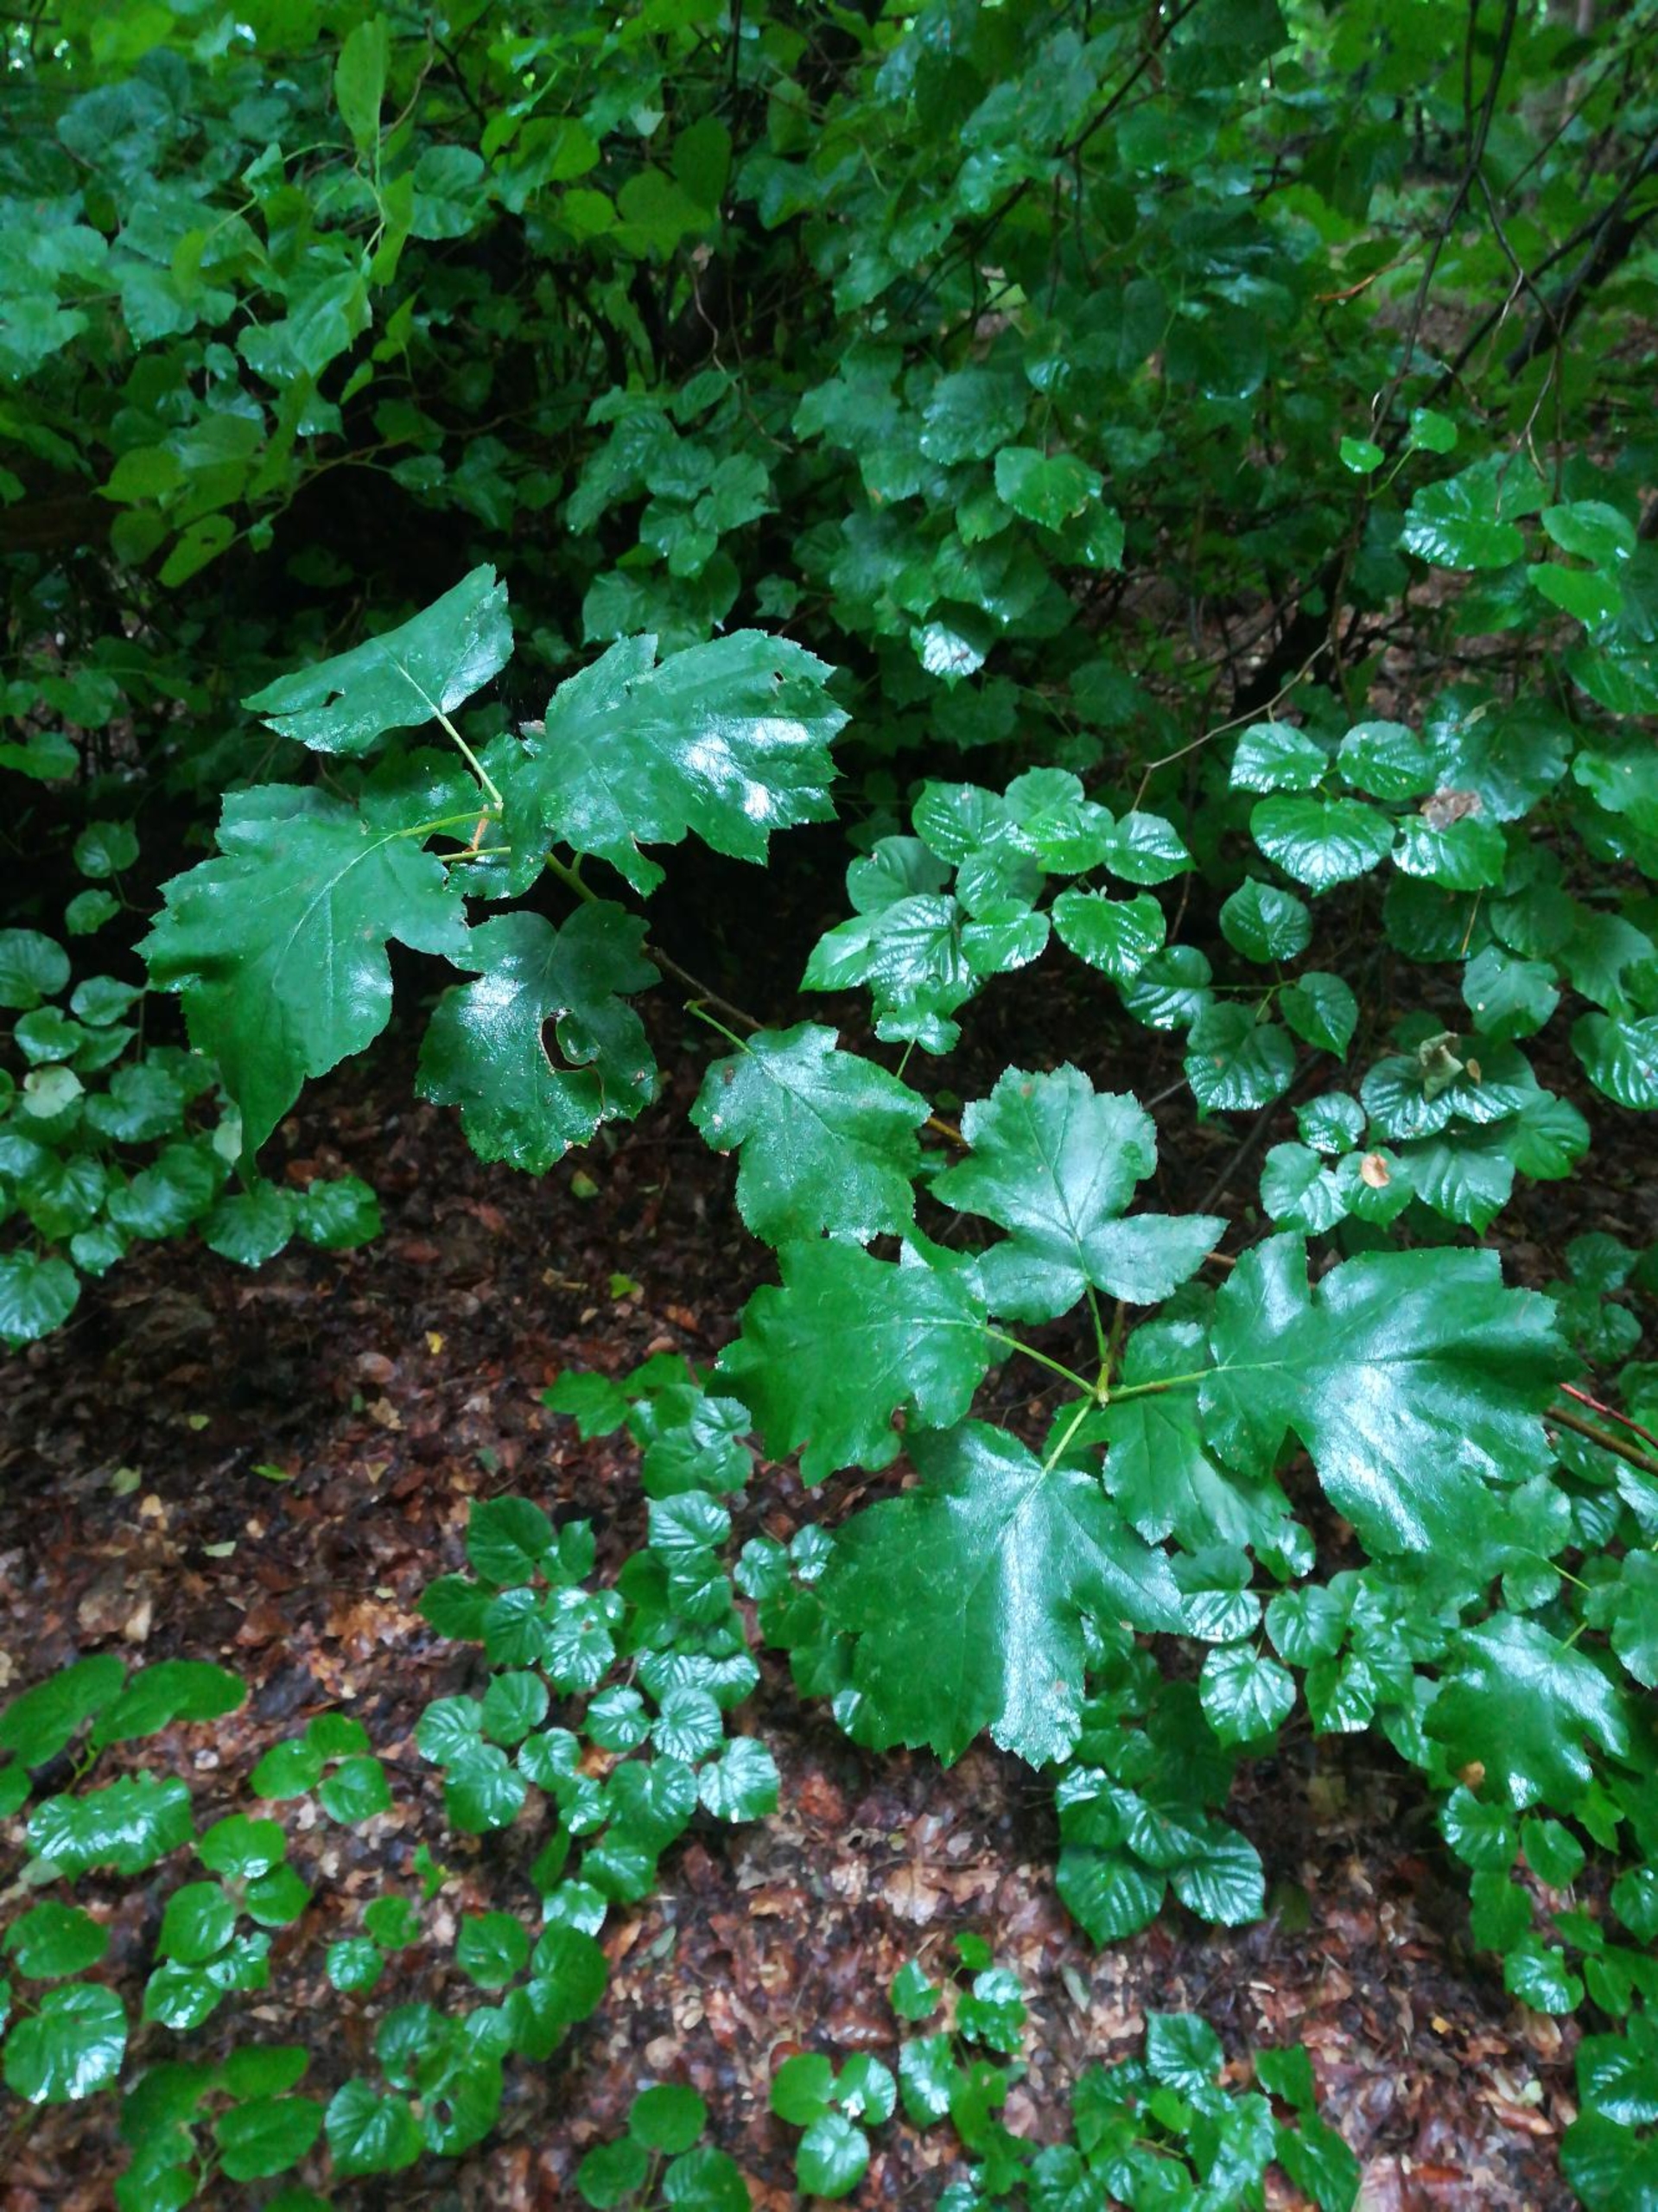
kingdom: Plantae
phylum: Tracheophyta
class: Magnoliopsida
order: Rosales
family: Rosaceae
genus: Torminalis
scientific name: Torminalis glaberrima
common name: Tarmvrid-røn
